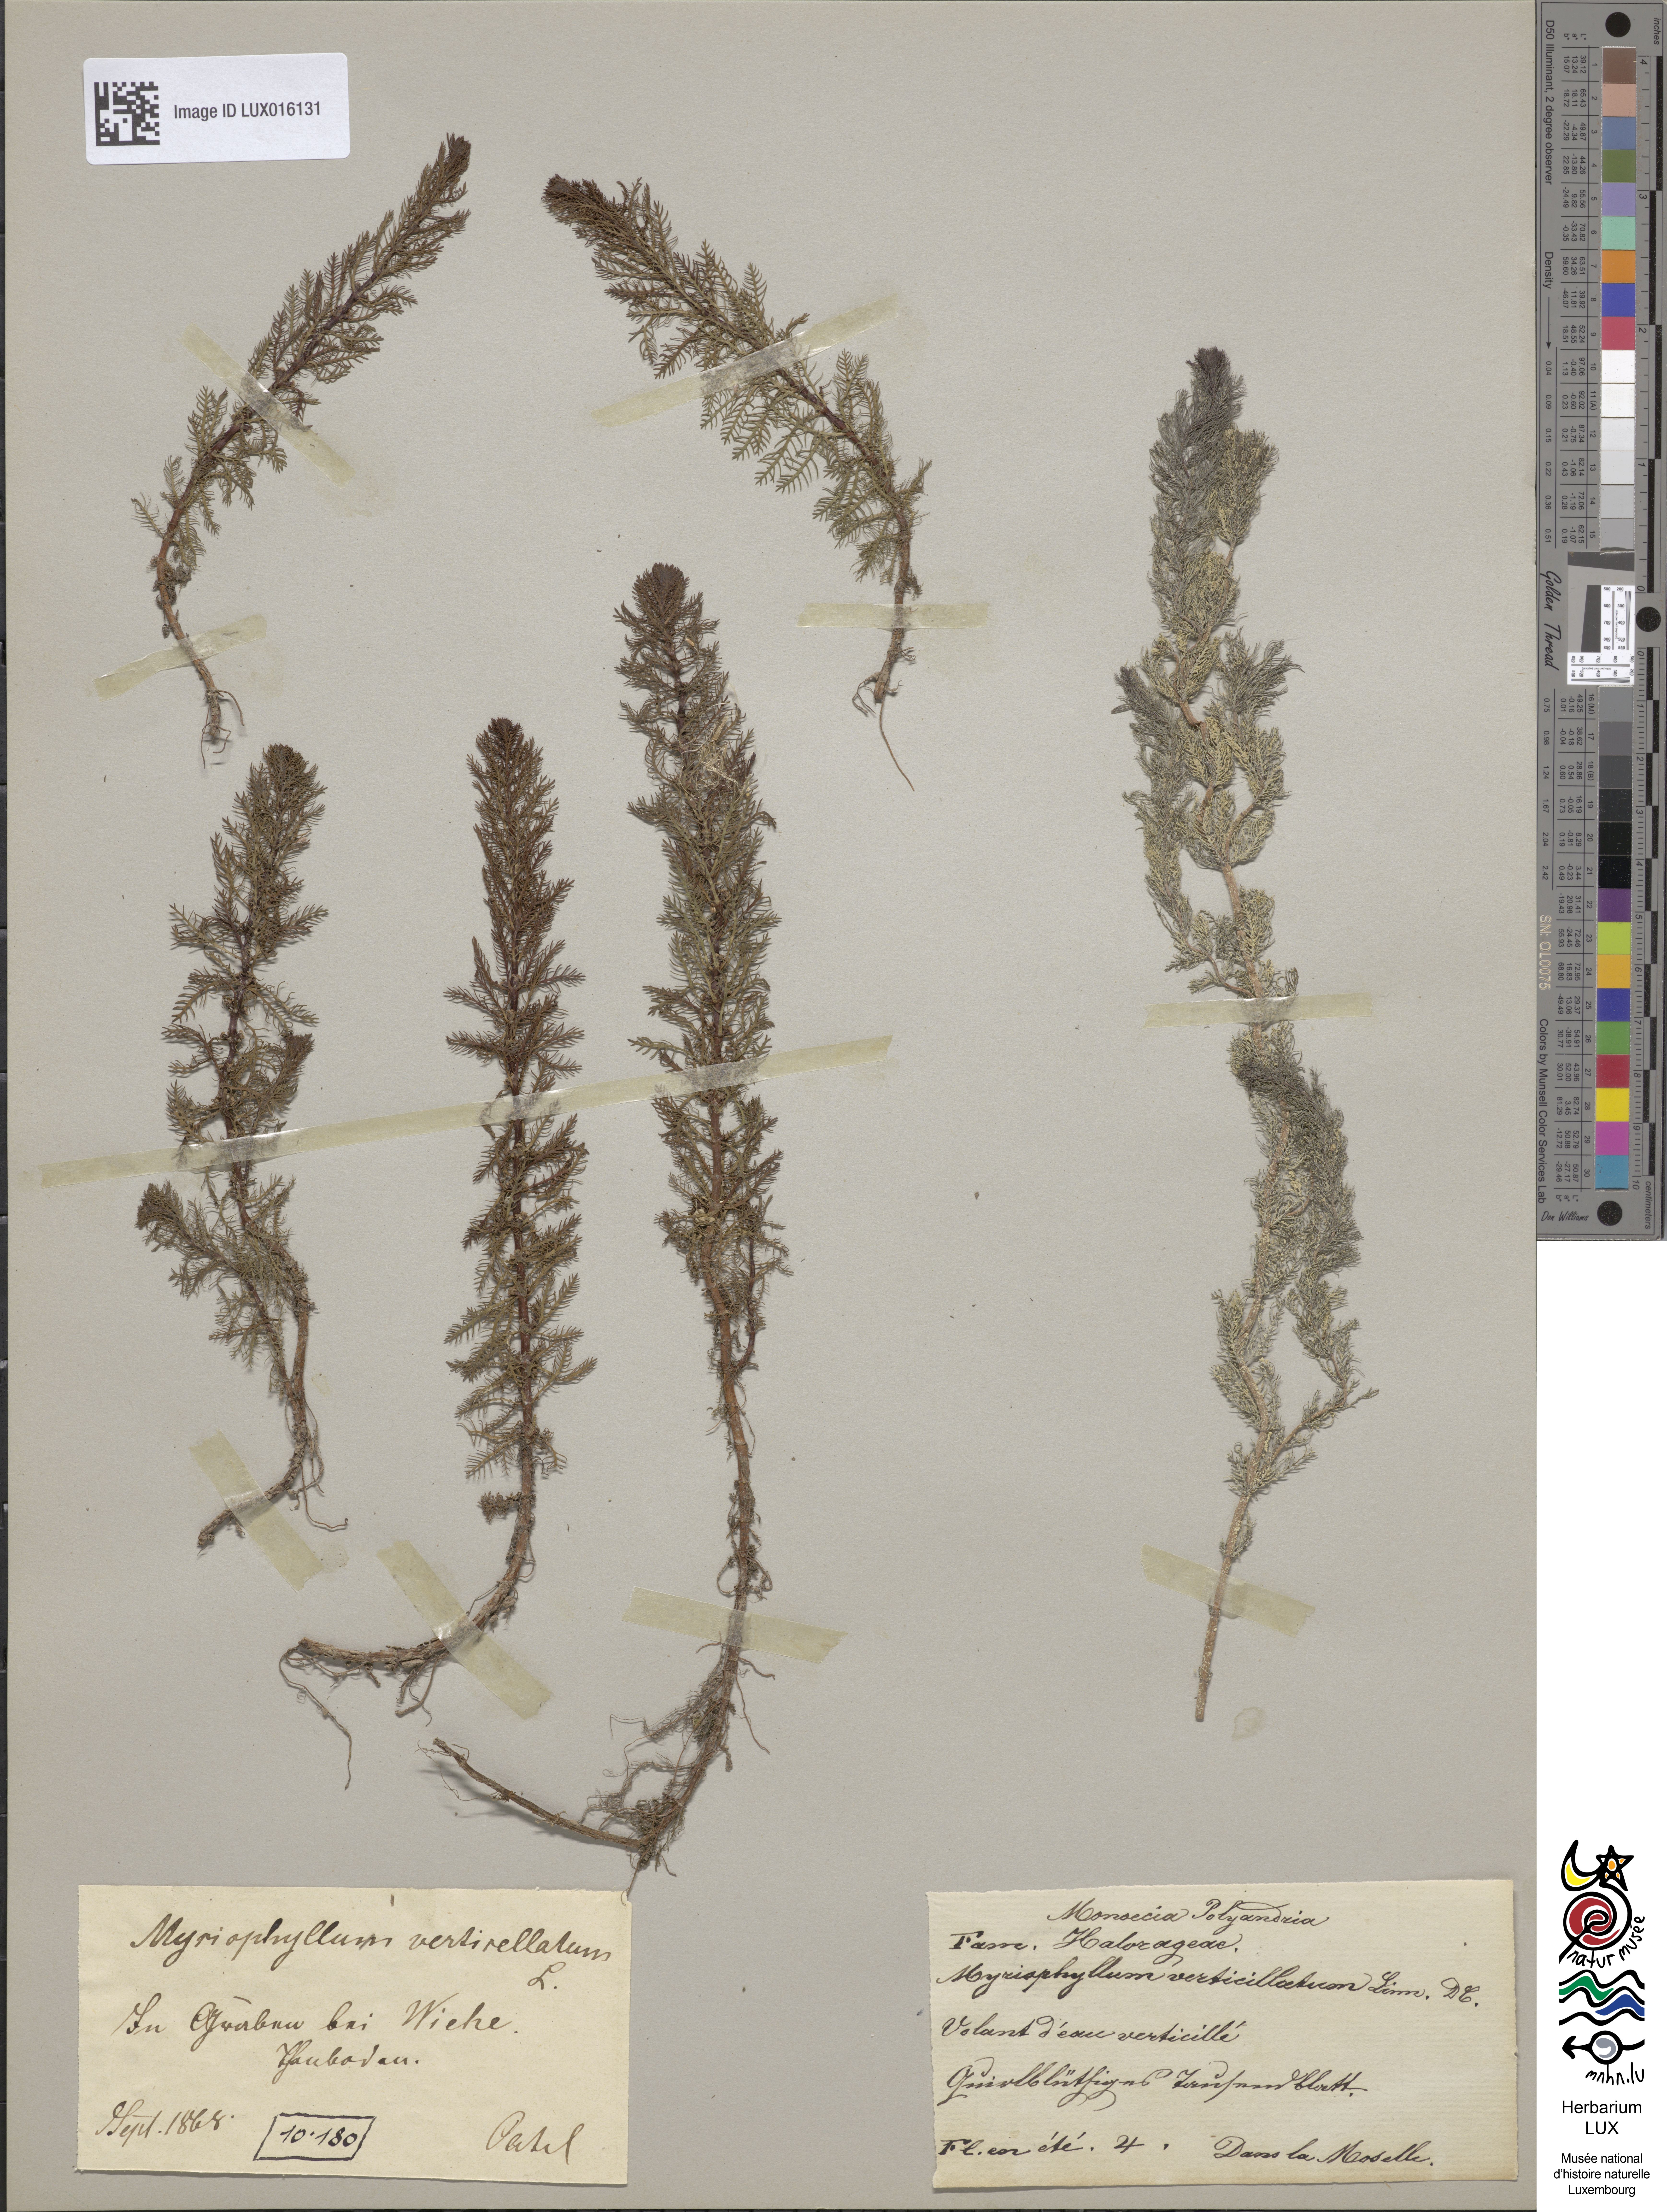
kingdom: Plantae
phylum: Tracheophyta
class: Magnoliopsida
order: Saxifragales
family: Haloragaceae
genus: Myriophyllum
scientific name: Myriophyllum verticillatum
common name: Whorled water-milfoil
